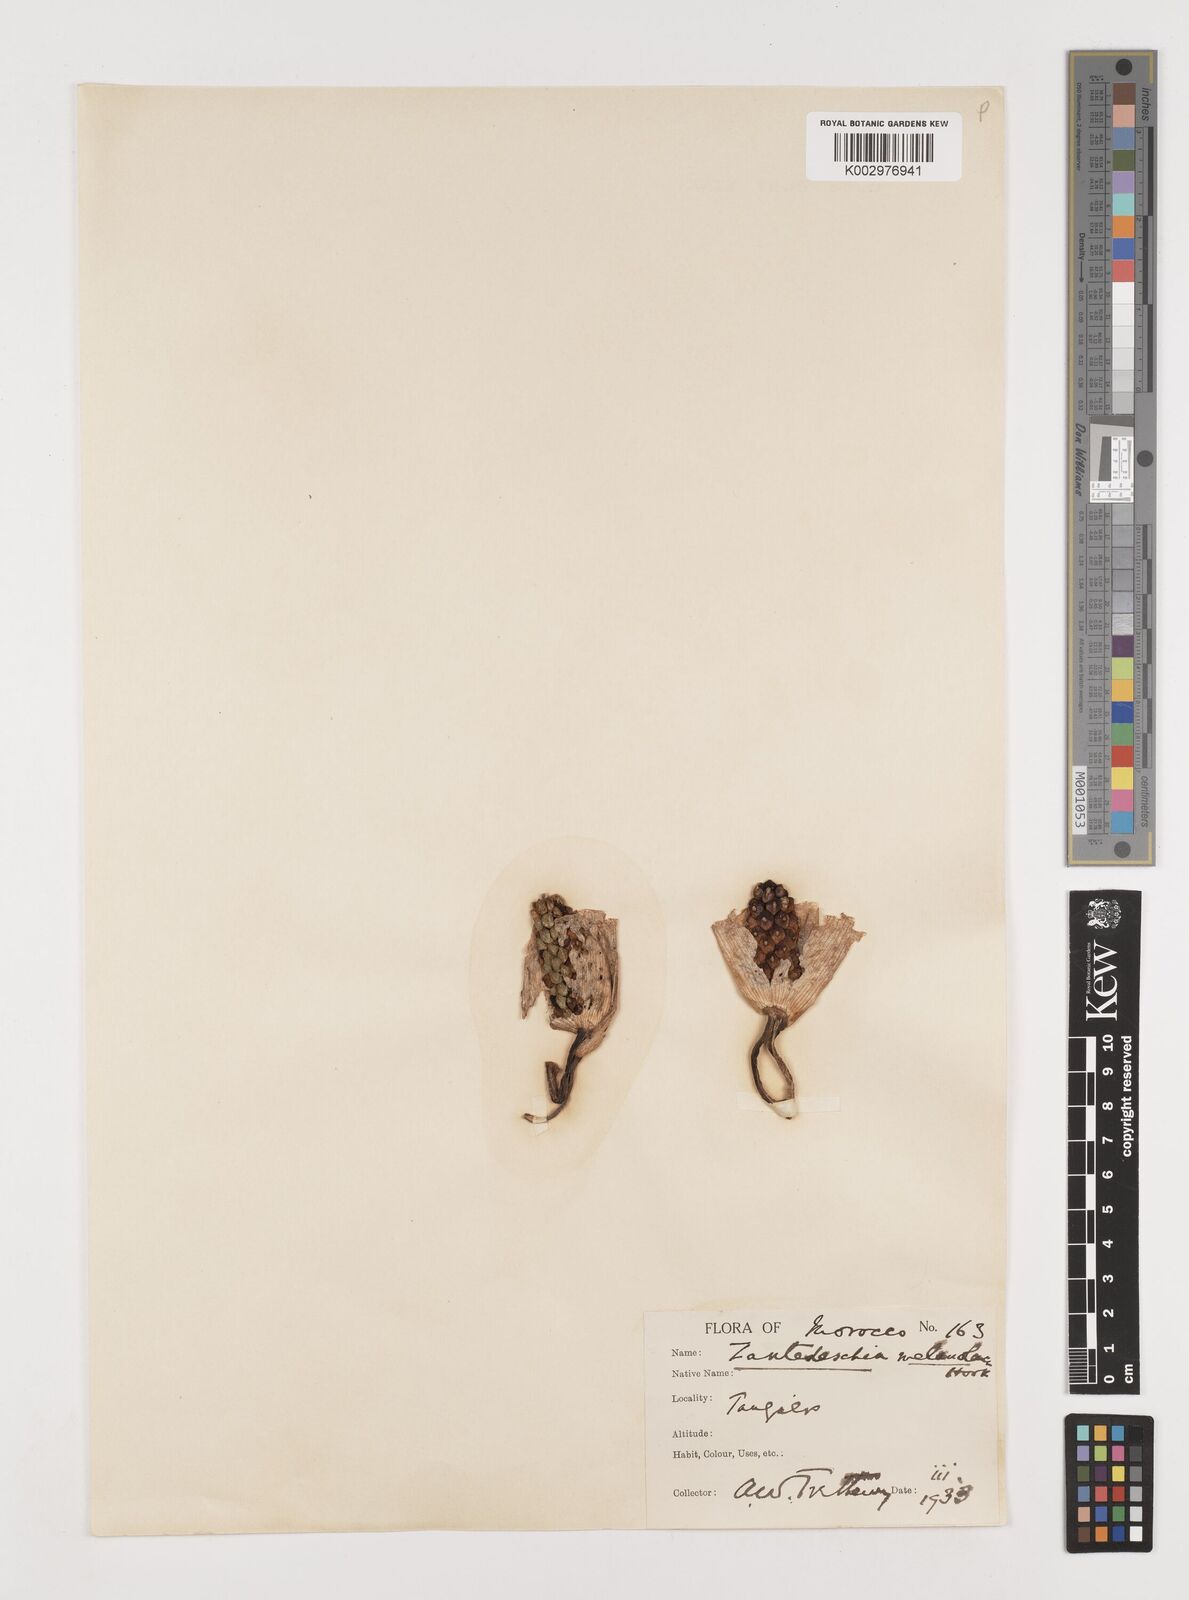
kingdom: Plantae
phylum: Tracheophyta
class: Liliopsida
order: Alismatales
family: Araceae
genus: Zantedeschia
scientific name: Zantedeschia albomaculata
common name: Spotted calla lily
